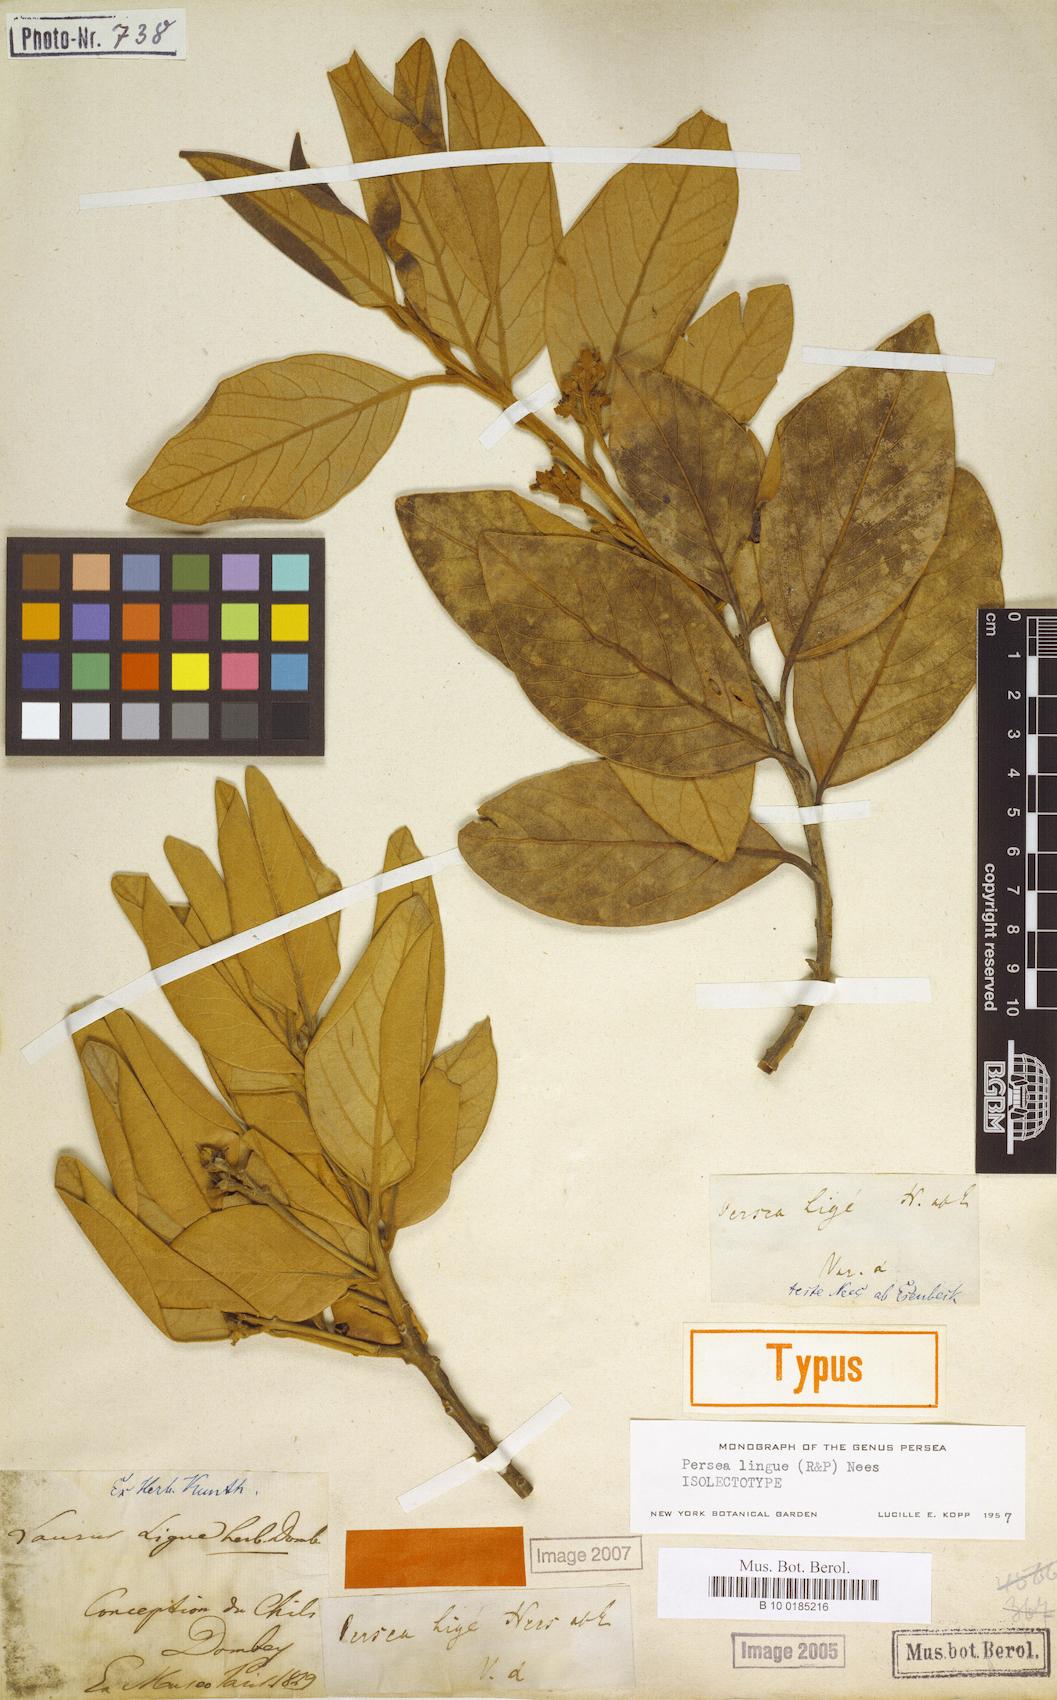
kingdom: Plantae
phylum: Tracheophyta
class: Magnoliopsida
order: Laurales
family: Lauraceae
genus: Persea
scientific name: Persea lingue
